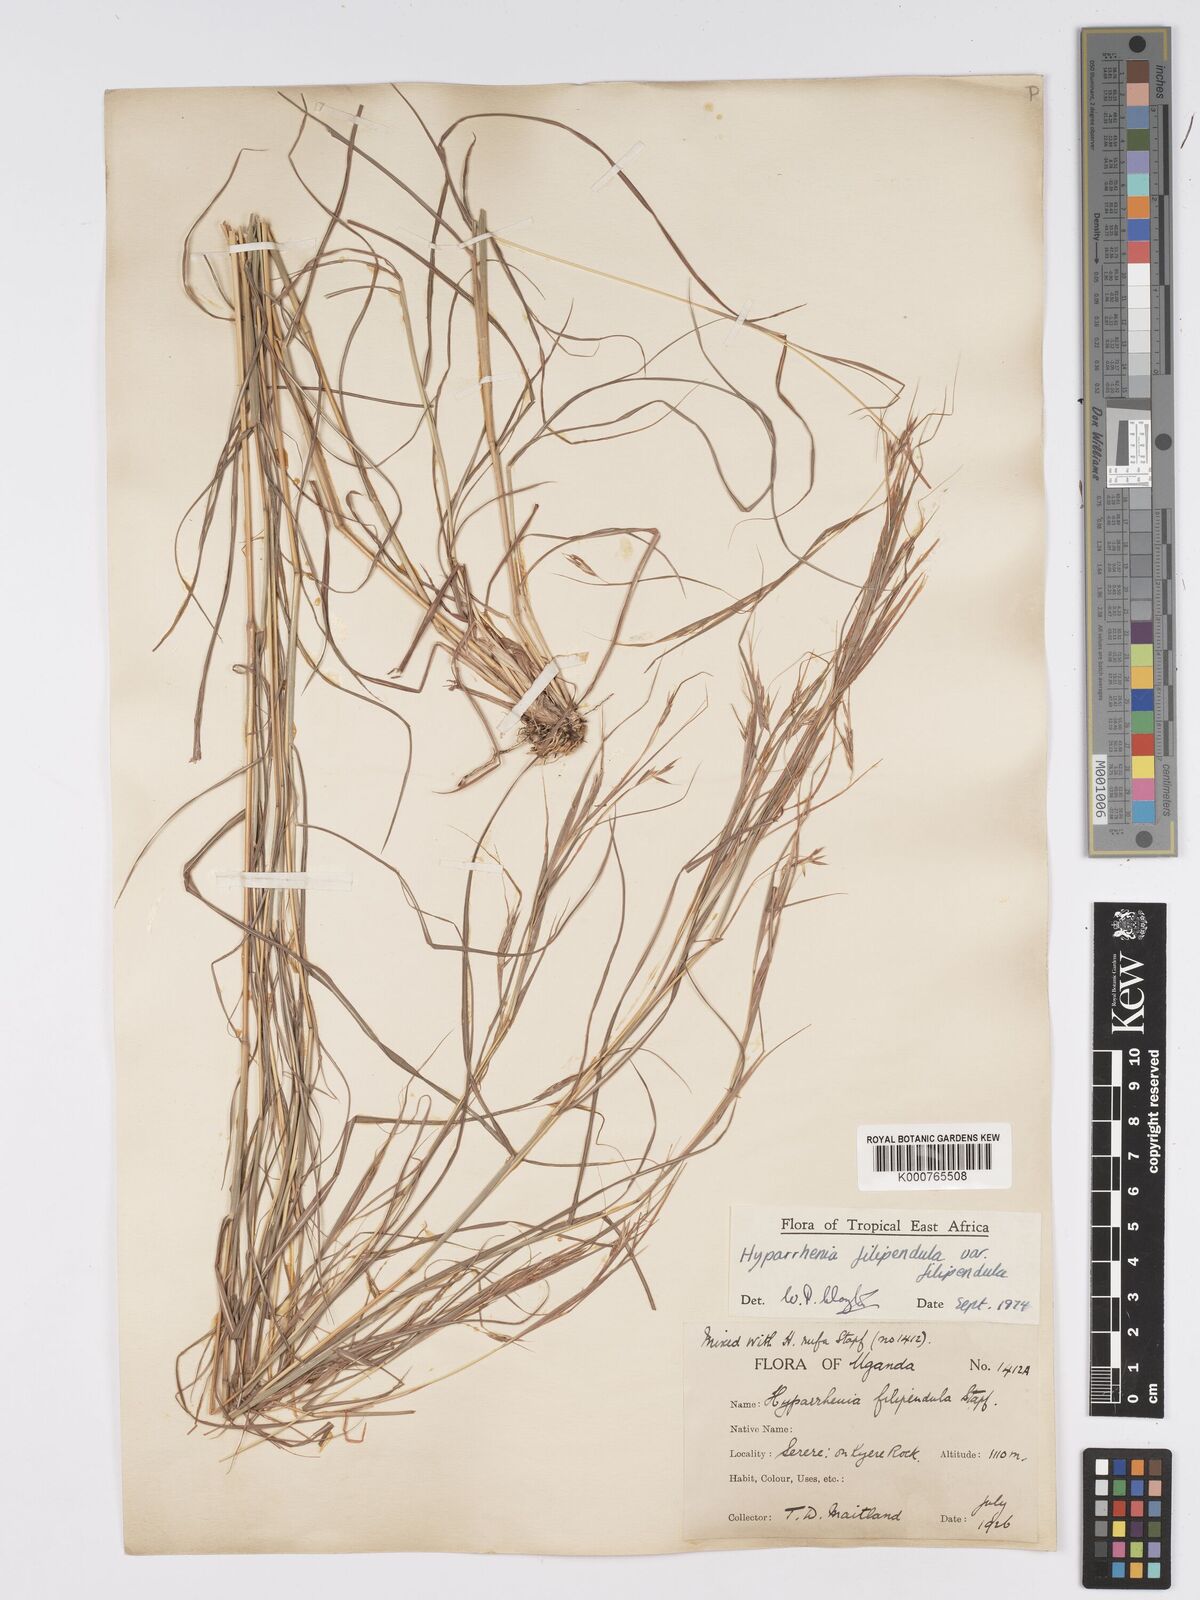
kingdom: Plantae
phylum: Tracheophyta
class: Liliopsida
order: Poales
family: Poaceae
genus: Hyparrhenia
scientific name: Hyparrhenia filipendula
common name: Tambookie grass
